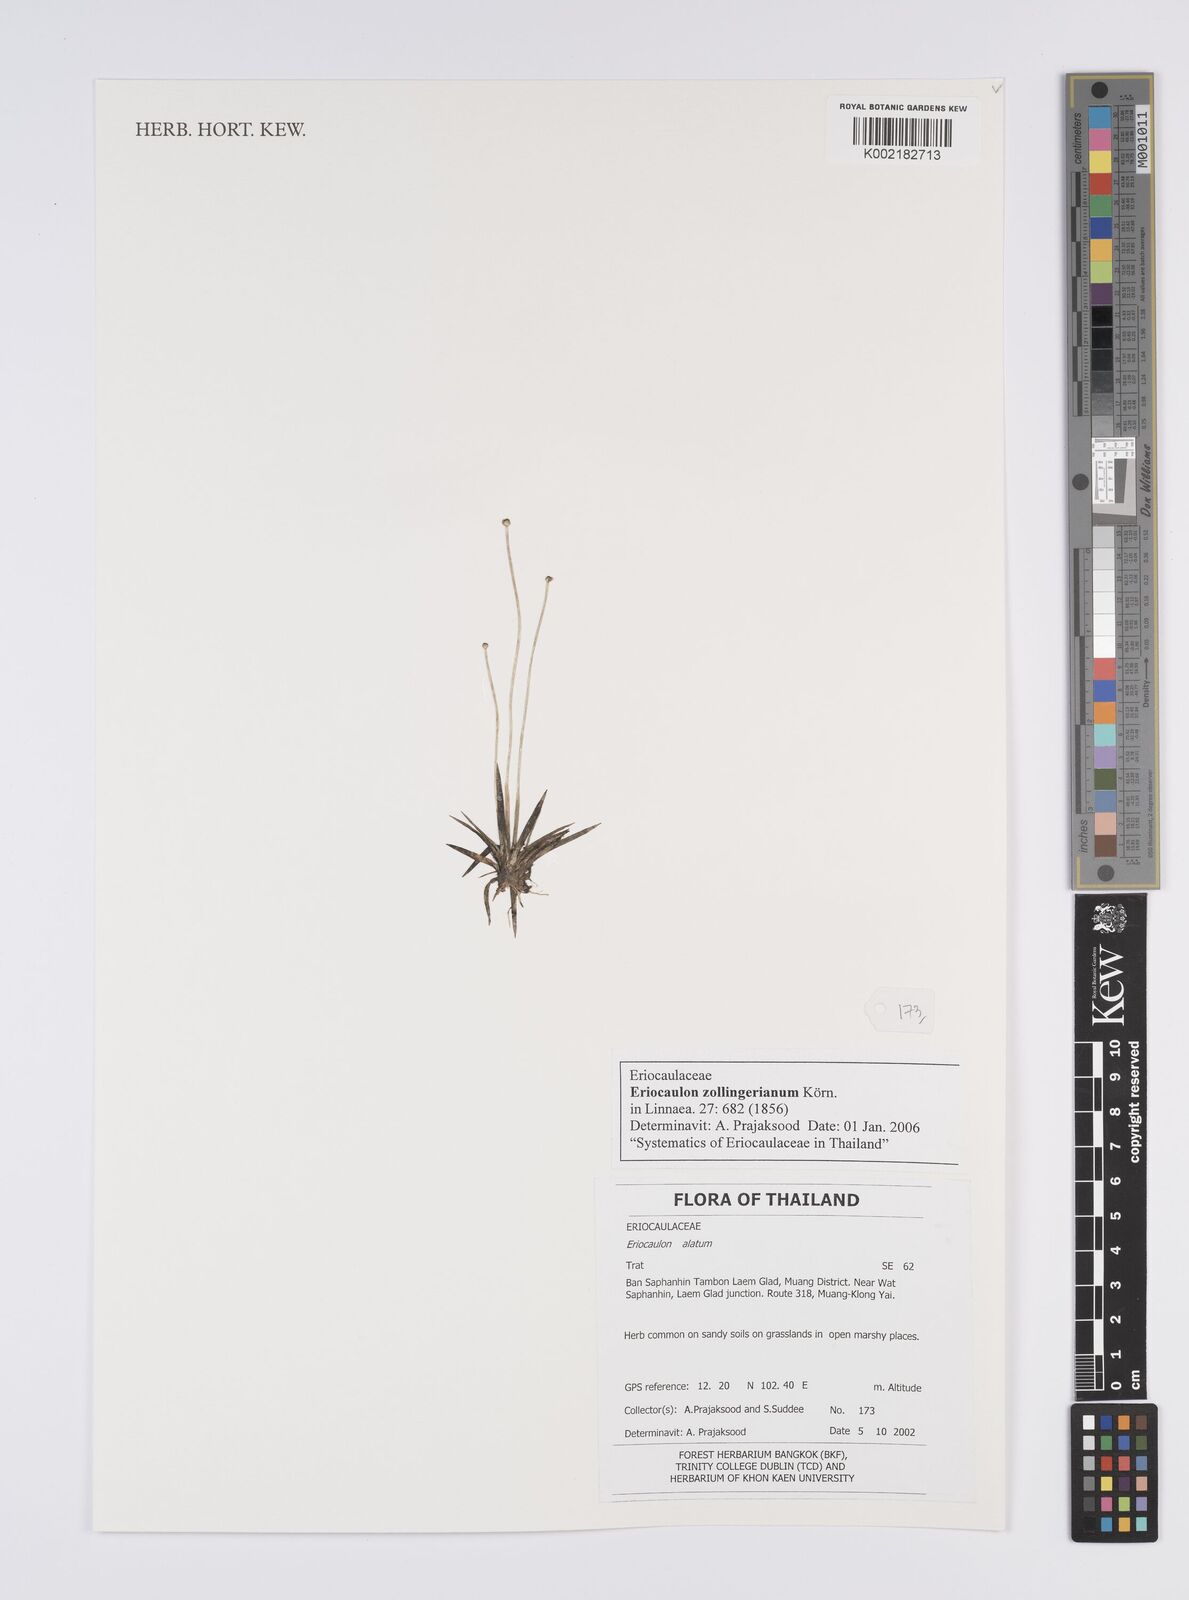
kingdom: Plantae
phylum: Tracheophyta
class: Liliopsida
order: Poales
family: Eriocaulaceae
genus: Eriocaulon
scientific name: Eriocaulon zollingerianum
